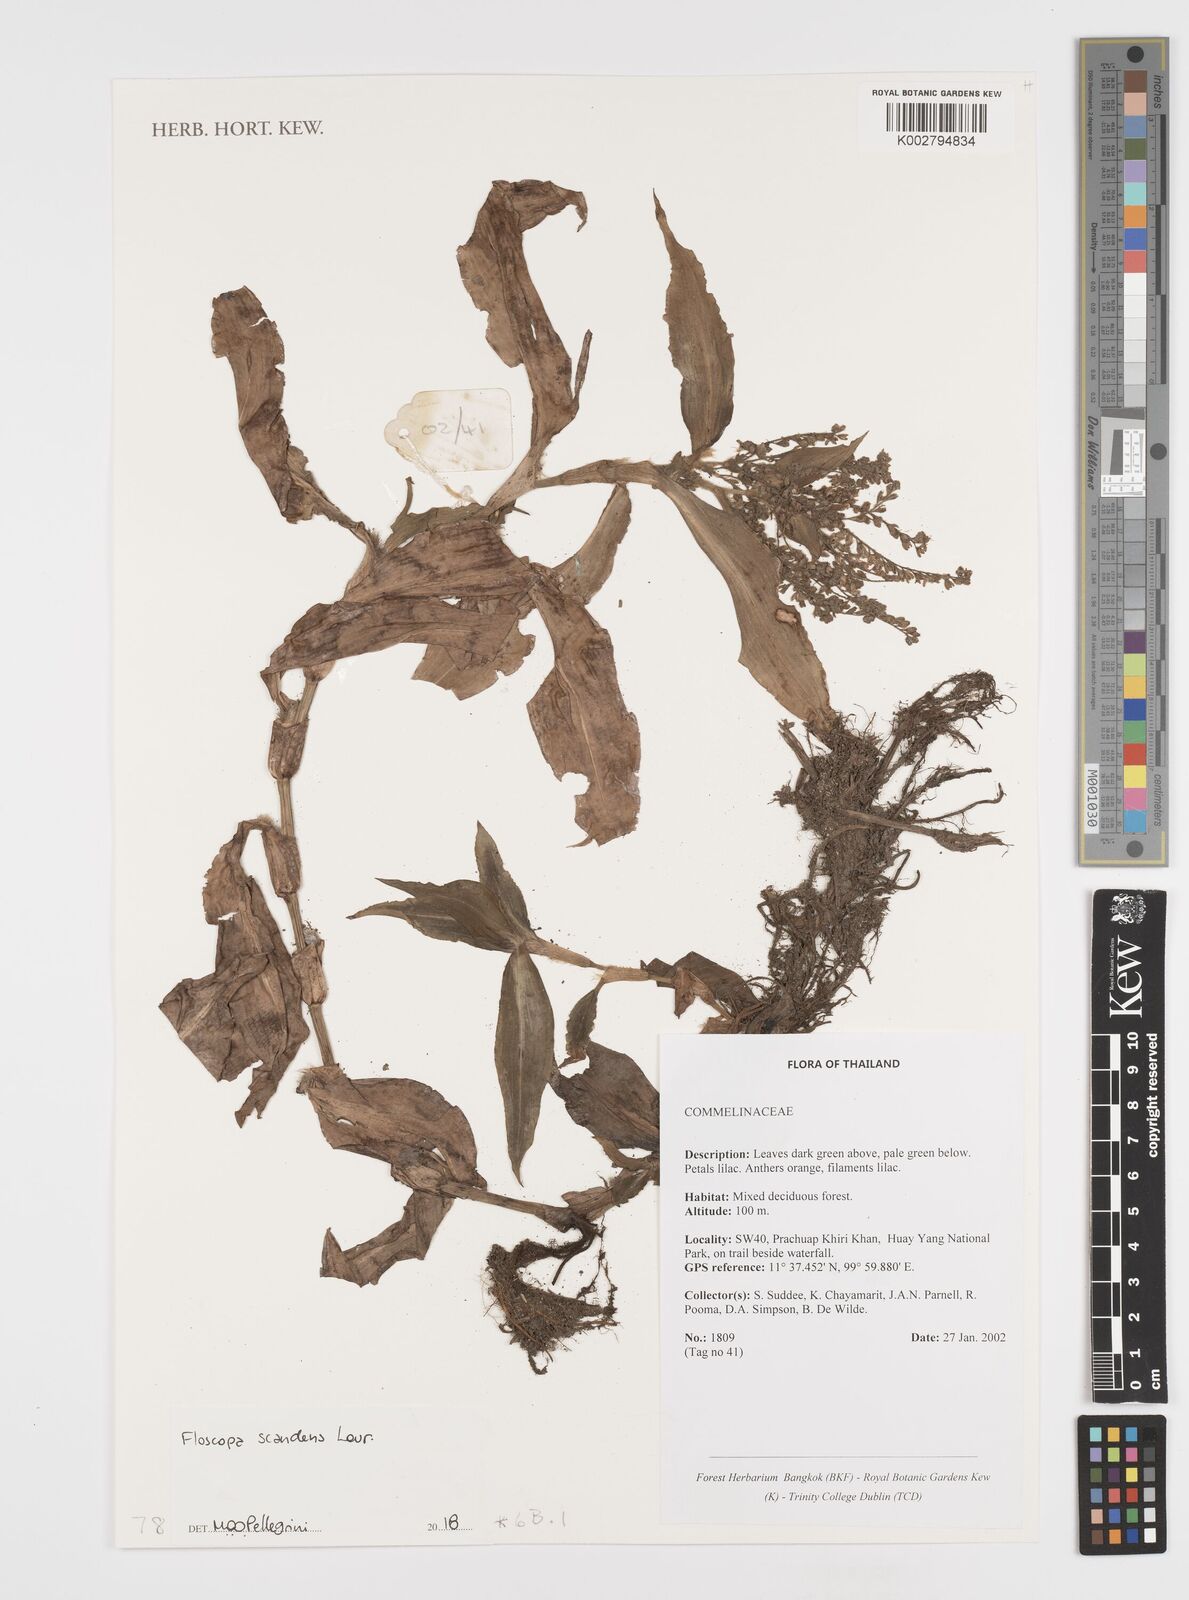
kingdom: Plantae
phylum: Tracheophyta
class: Liliopsida
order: Commelinales
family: Commelinaceae
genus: Floscopa
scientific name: Floscopa scandens
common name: Climbing flower cup
